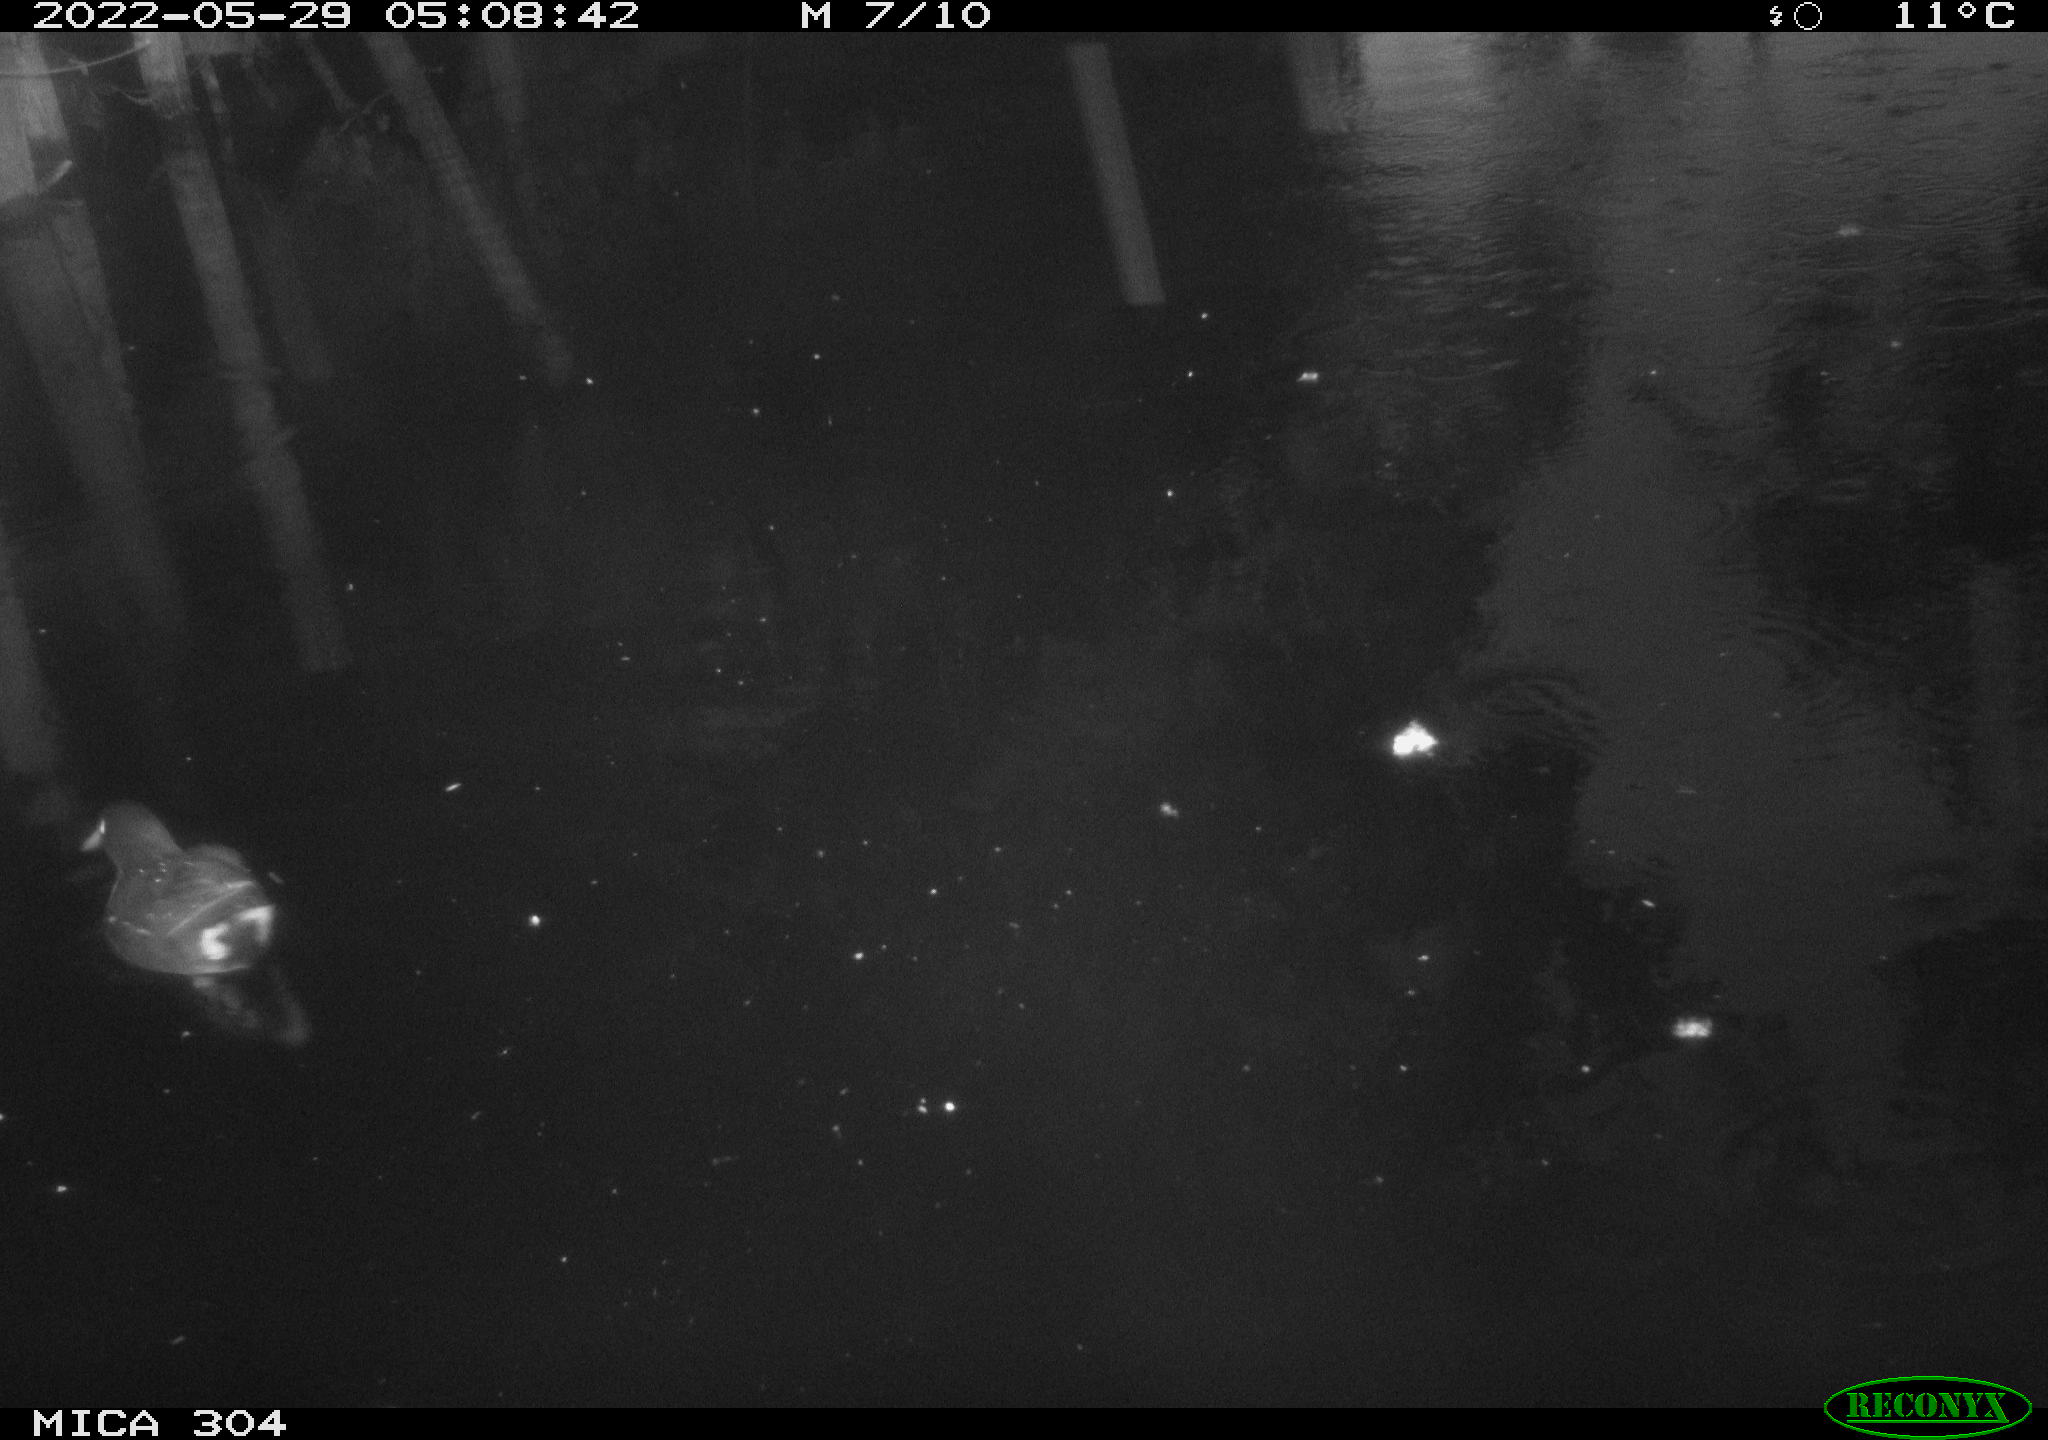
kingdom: Animalia
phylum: Chordata
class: Aves
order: Gruiformes
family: Rallidae
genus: Gallinula
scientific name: Gallinula chloropus
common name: Common moorhen
